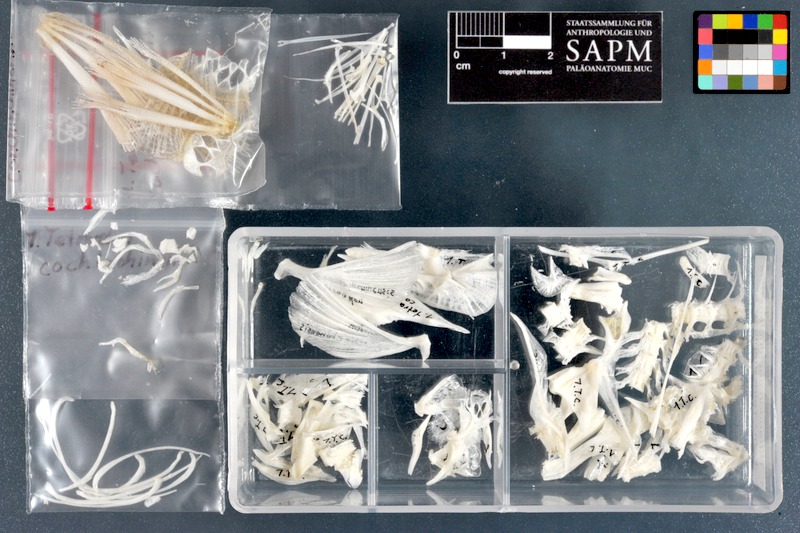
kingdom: Animalia
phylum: Chordata
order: Tetraodontiformes
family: Tetraodontidae
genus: Pao
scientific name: Pao cochinchinensis
